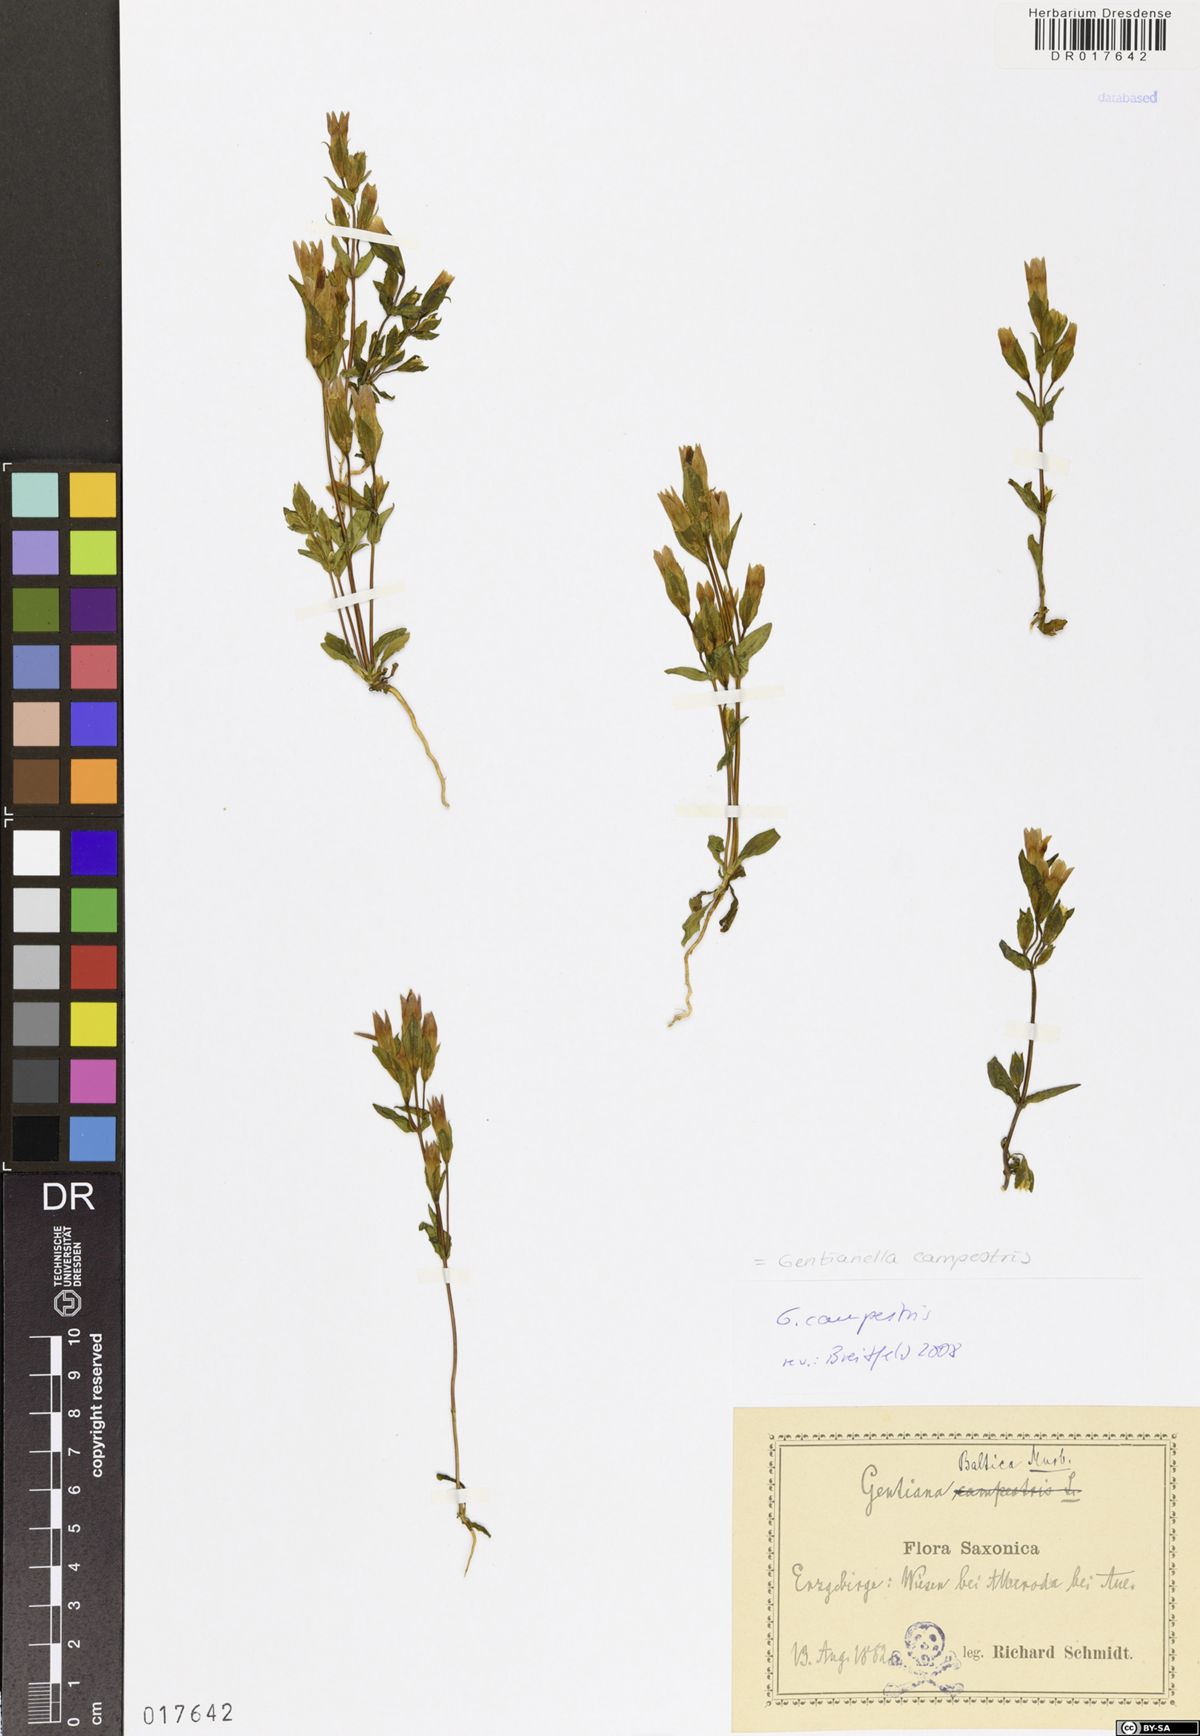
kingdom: Plantae
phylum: Tracheophyta
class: Magnoliopsida
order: Gentianales
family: Gentianaceae
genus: Gentianella
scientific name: Gentianella campestris
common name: Field gentian
